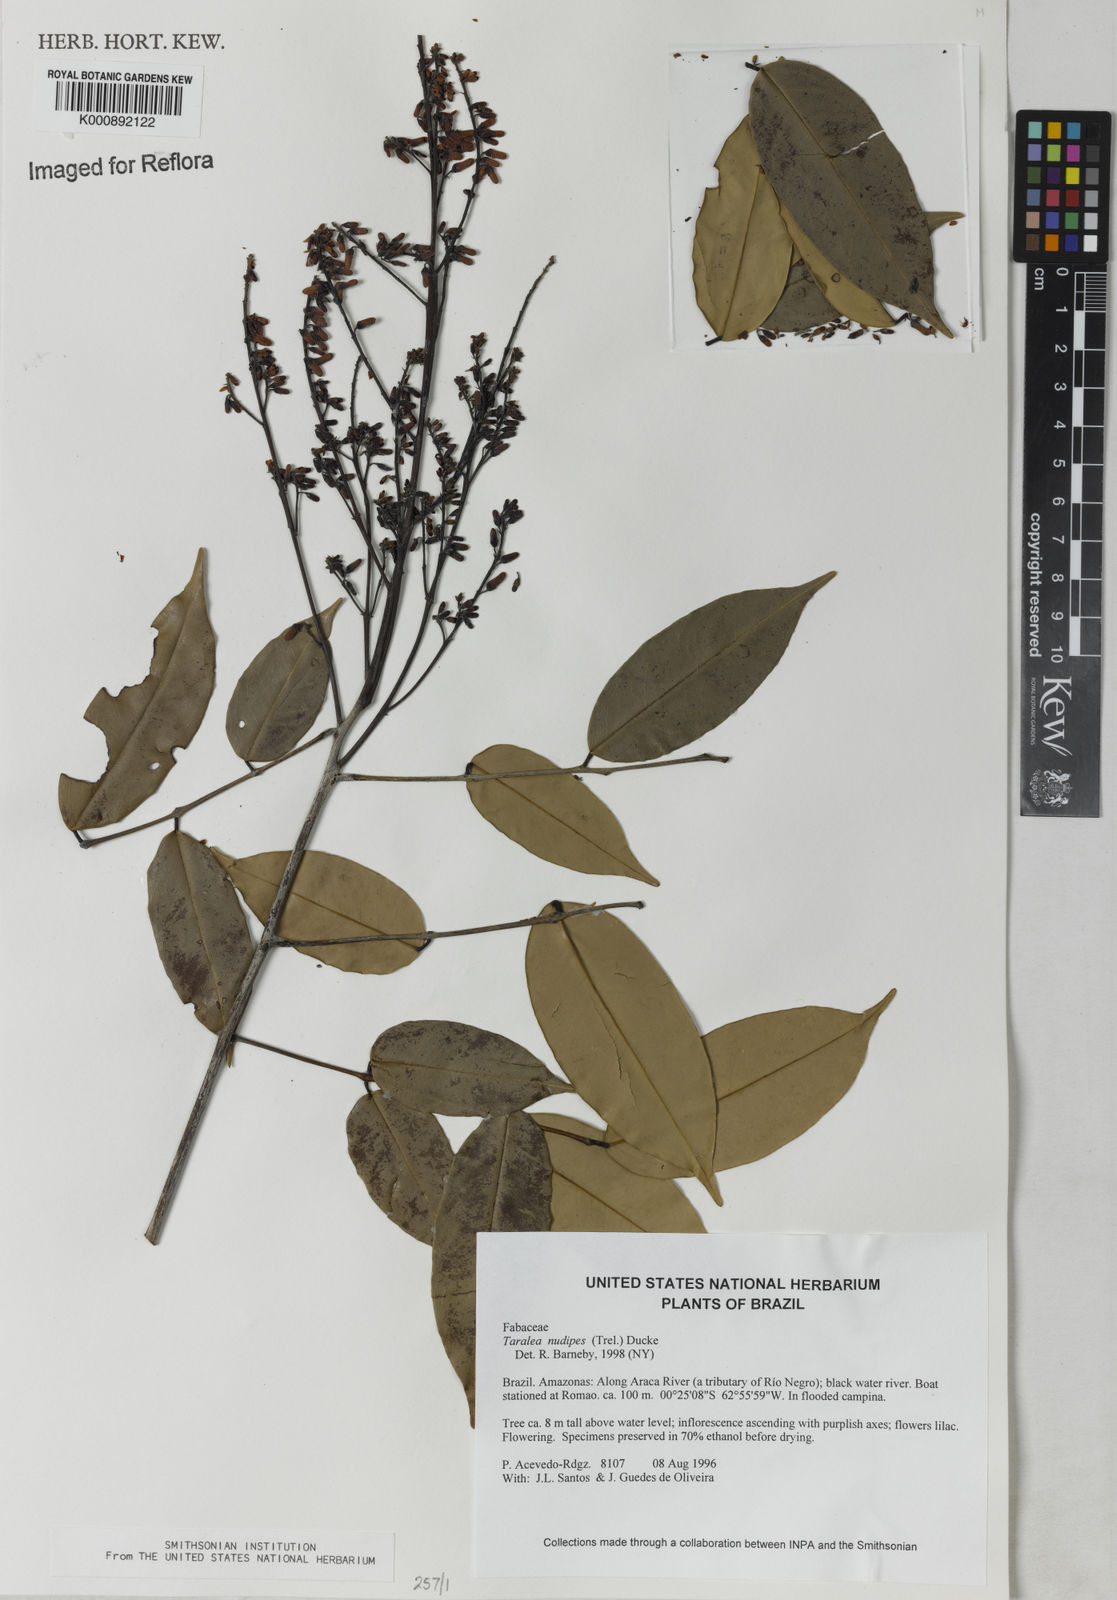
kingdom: Plantae
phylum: Tracheophyta
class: Magnoliopsida
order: Fabales
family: Fabaceae
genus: Taralea
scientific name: Taralea nudipes
